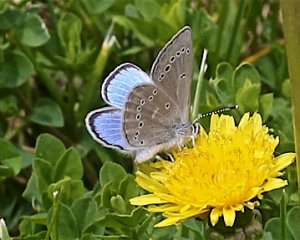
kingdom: Animalia
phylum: Arthropoda
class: Insecta
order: Lepidoptera
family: Lycaenidae
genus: Glaucopsyche
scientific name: Glaucopsyche lygdamus
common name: Silvery Blue
